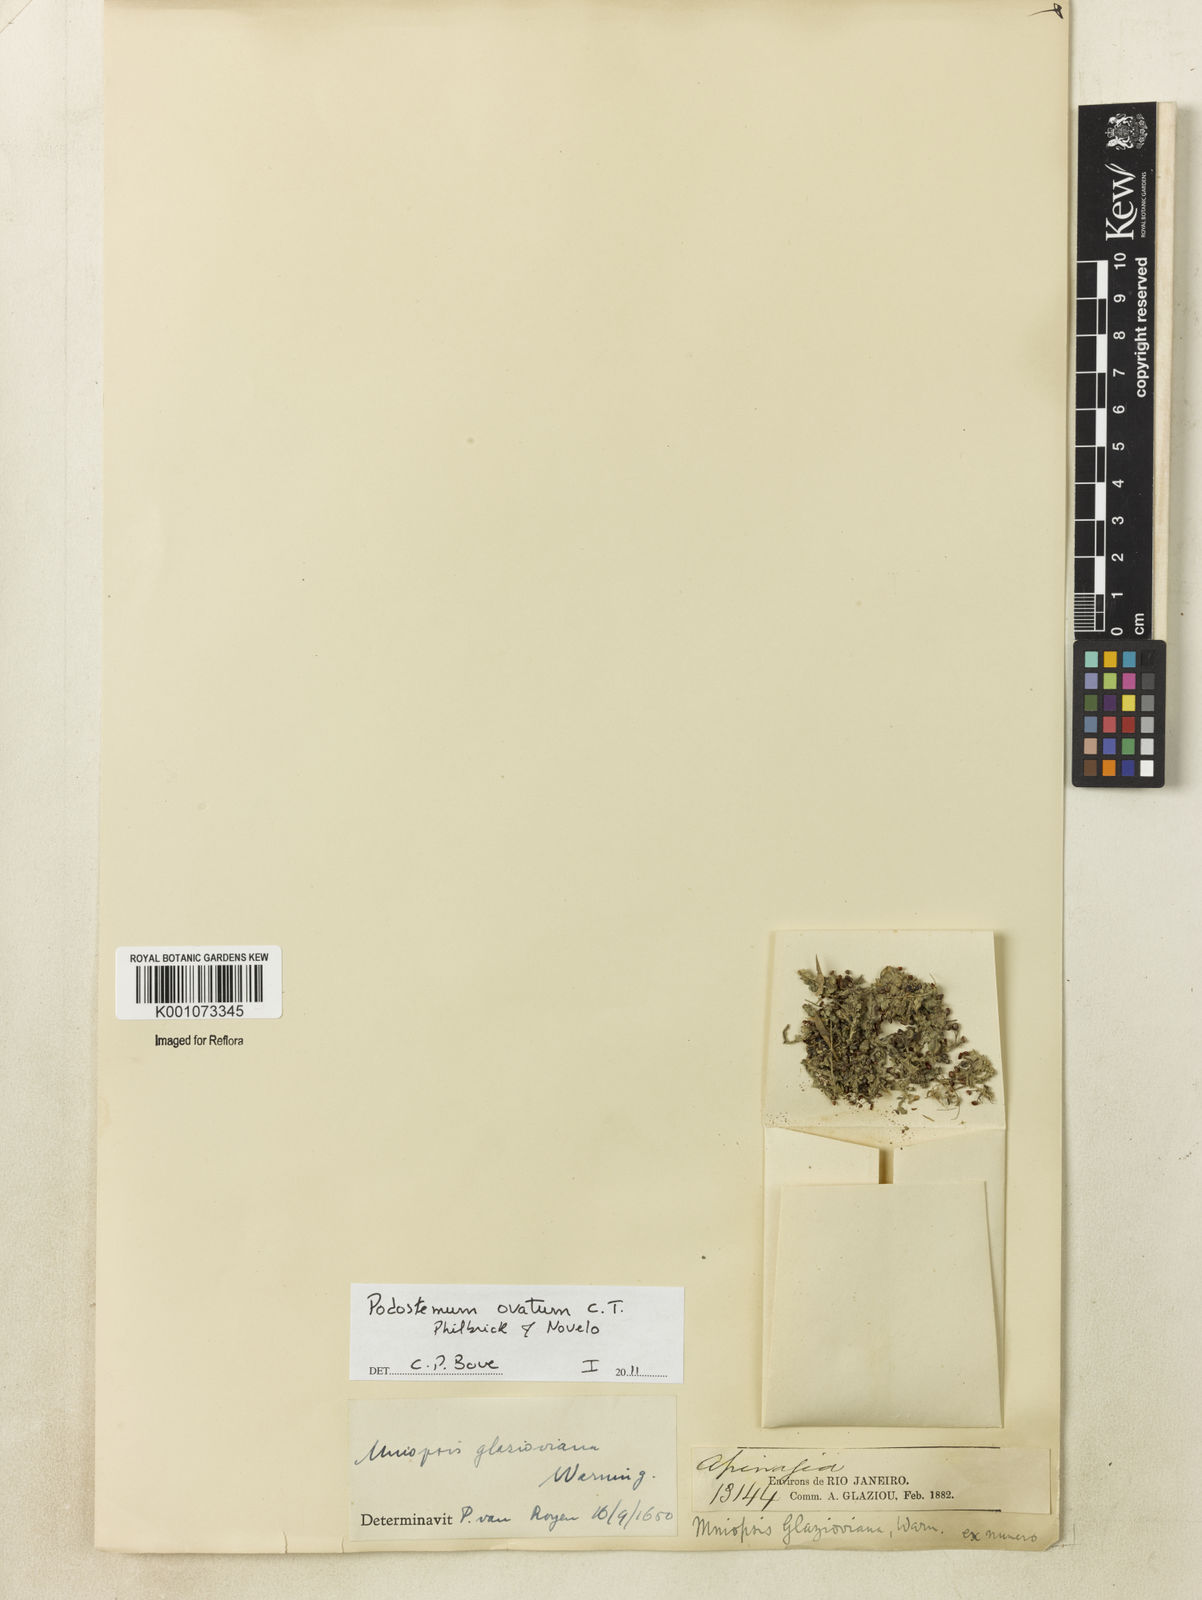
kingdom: Plantae
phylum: Tracheophyta
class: Magnoliopsida
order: Malpighiales
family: Podostemaceae
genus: Podostemum
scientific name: Podostemum ovatum
